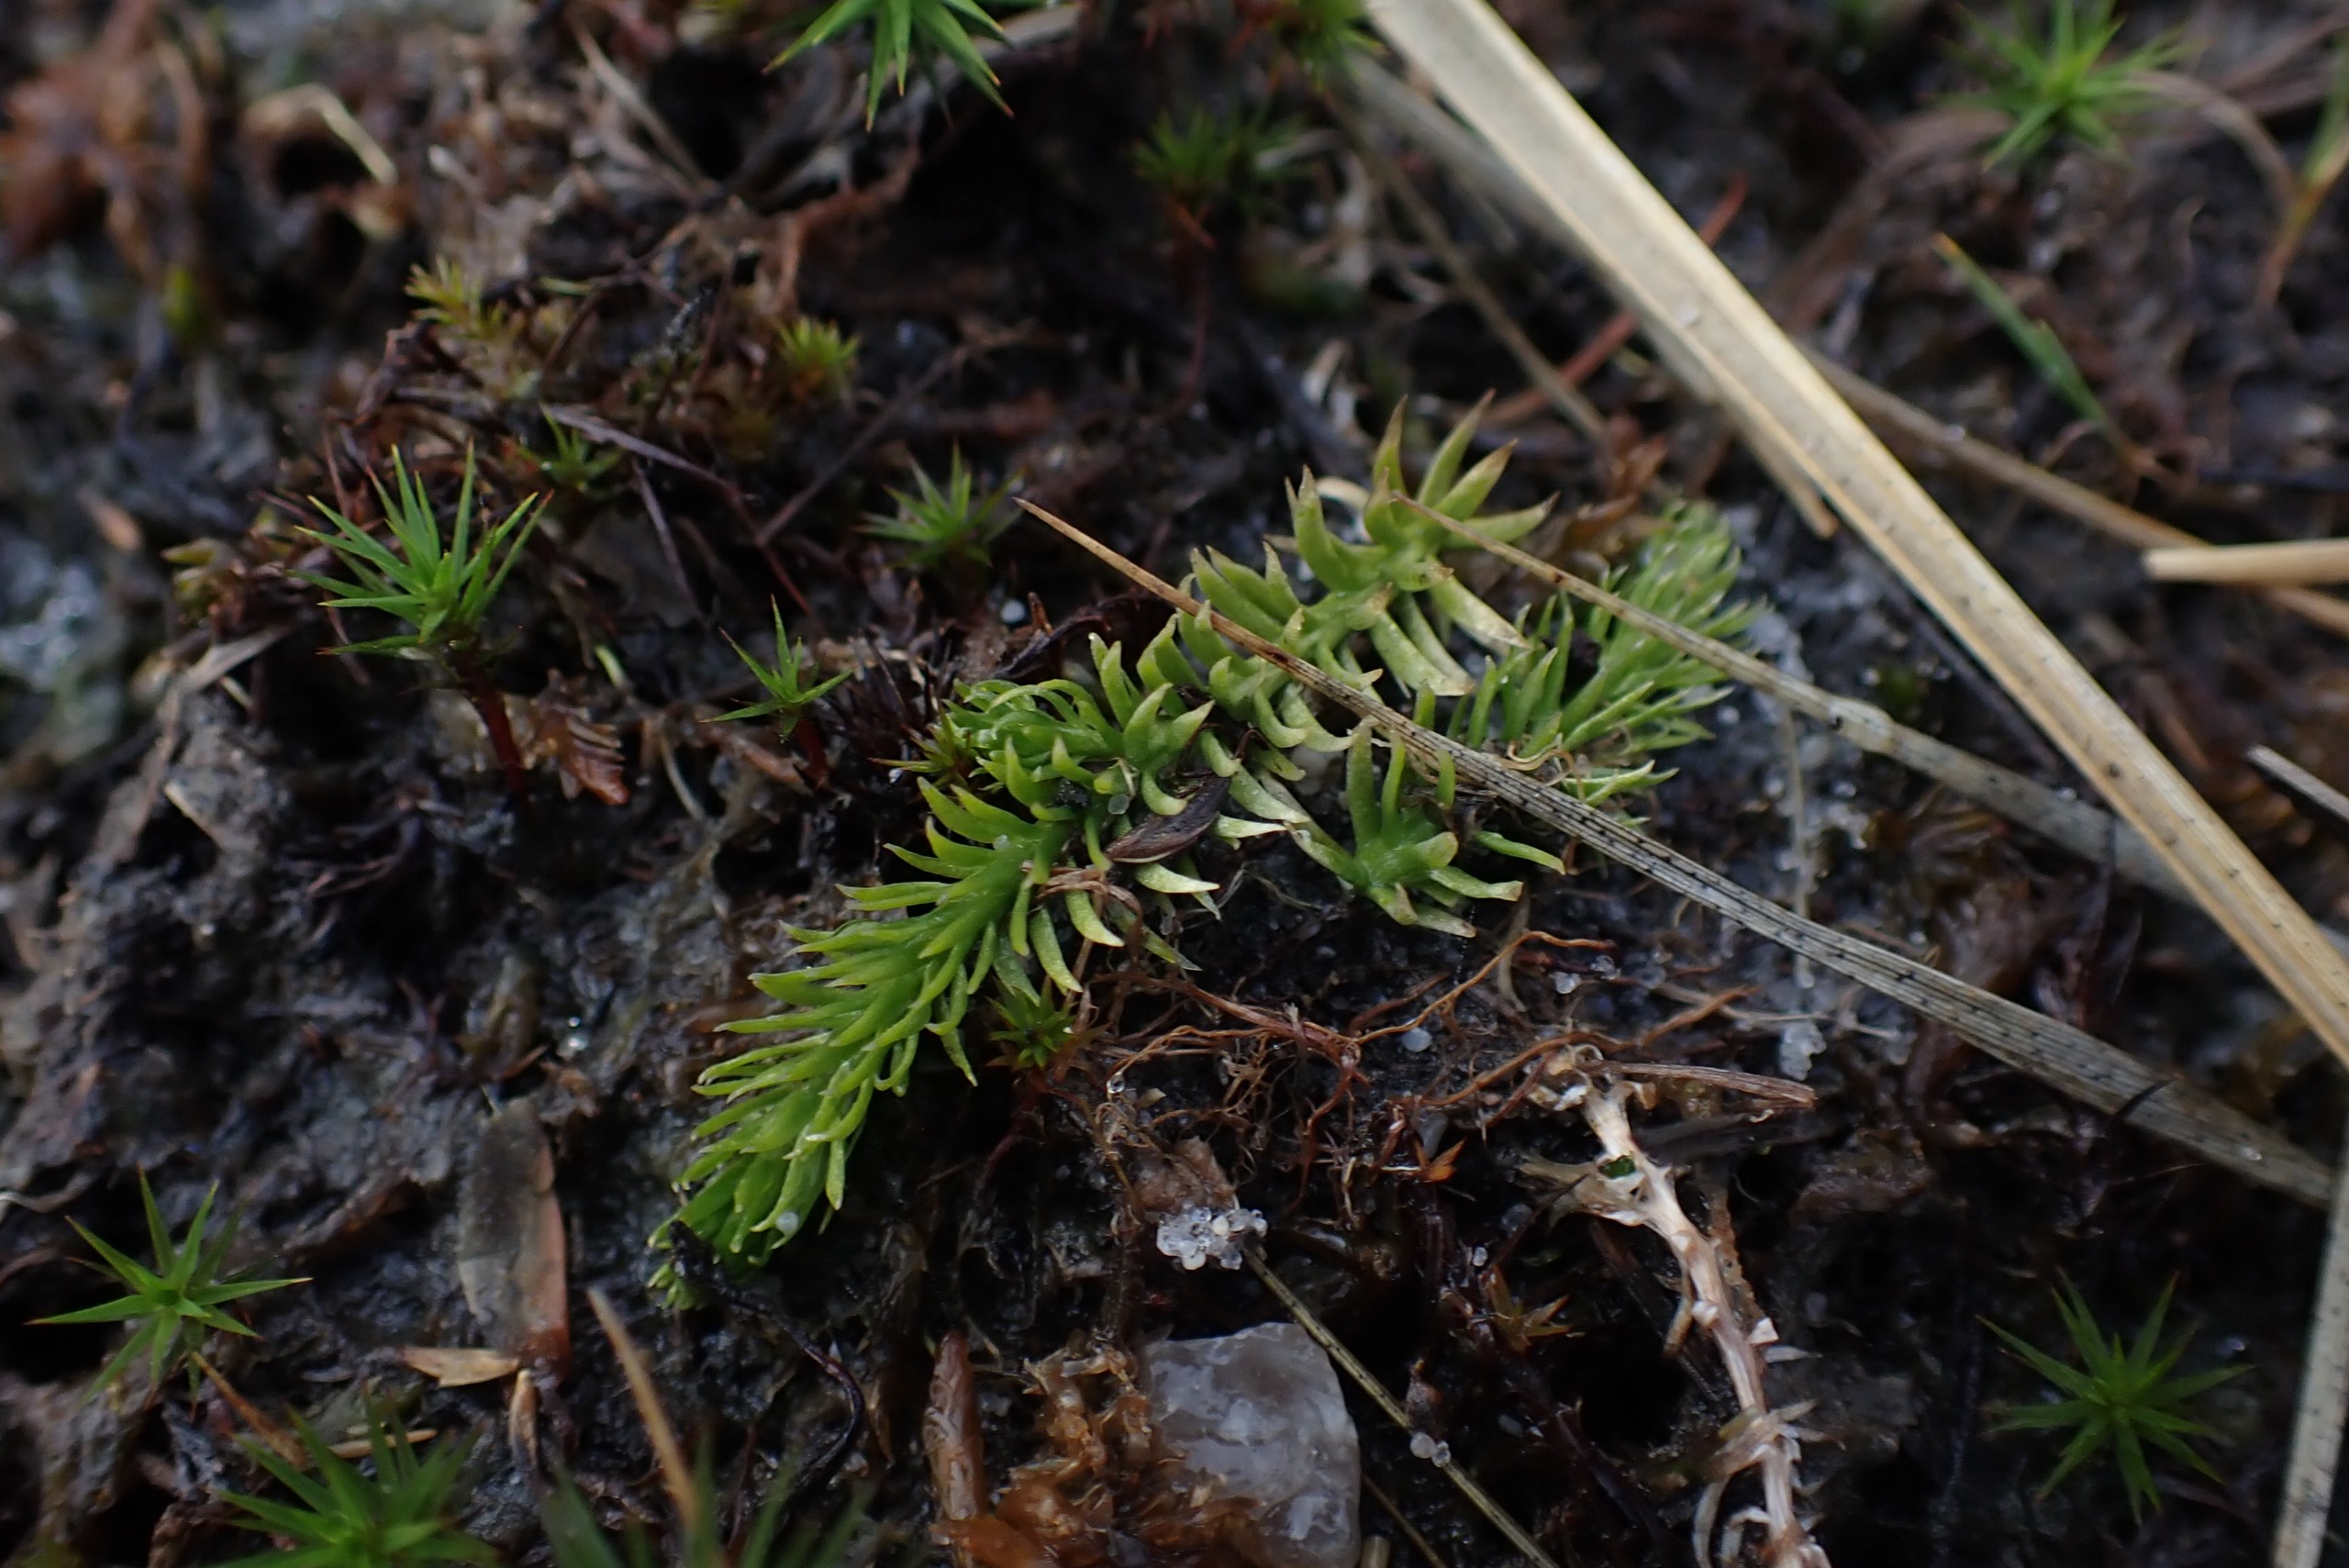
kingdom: Plantae
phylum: Tracheophyta
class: Lycopodiopsida
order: Lycopodiales
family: Lycopodiaceae
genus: Lycopodiella
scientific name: Lycopodiella inundata
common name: Liden ulvefod
